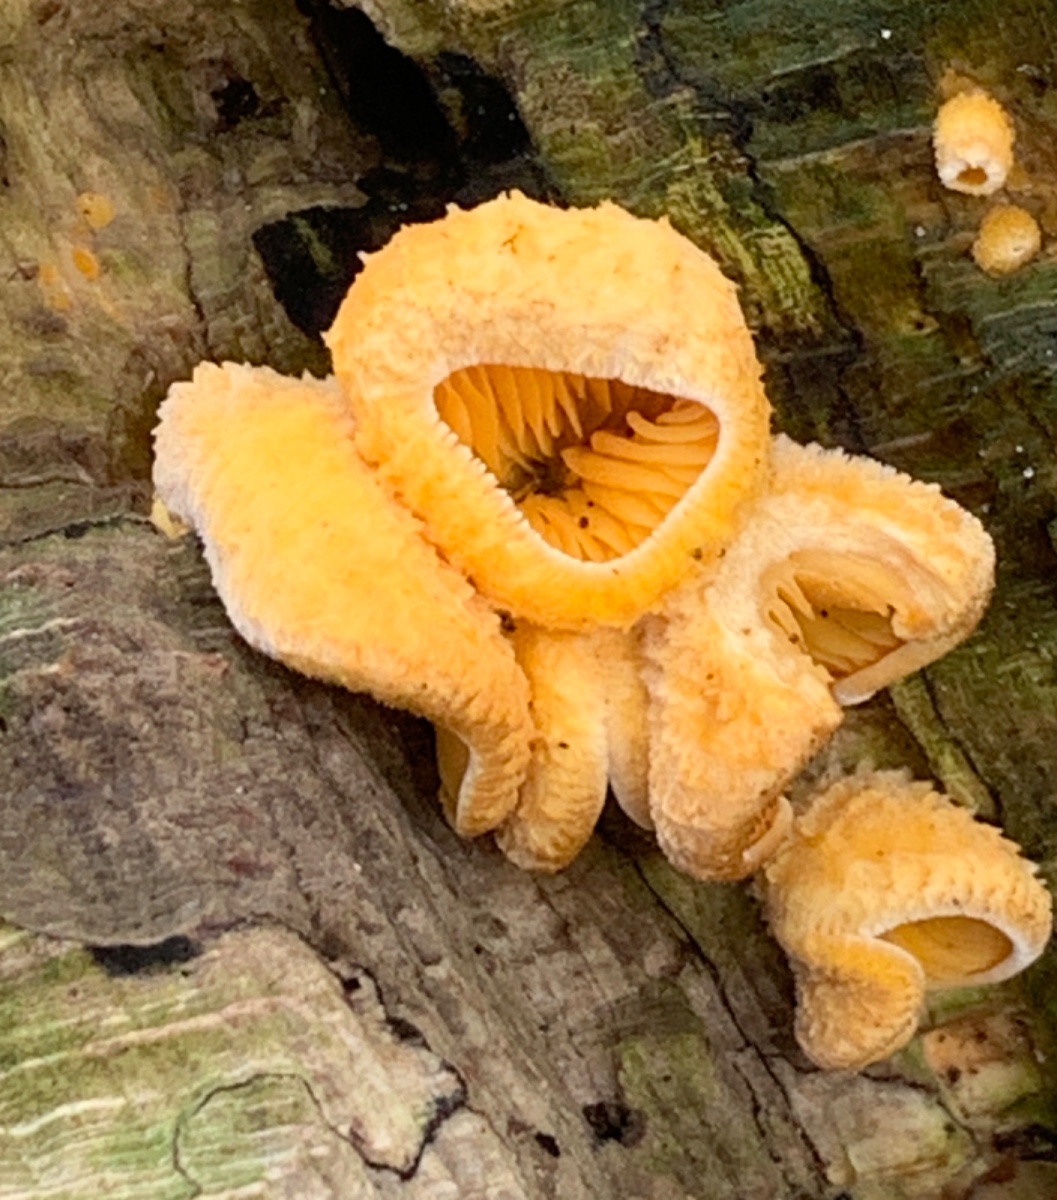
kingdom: Fungi
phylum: Basidiomycota
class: Agaricomycetes
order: Agaricales
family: Phyllotopsidaceae
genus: Phyllotopsis
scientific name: Phyllotopsis nidulans
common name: okkerblad
